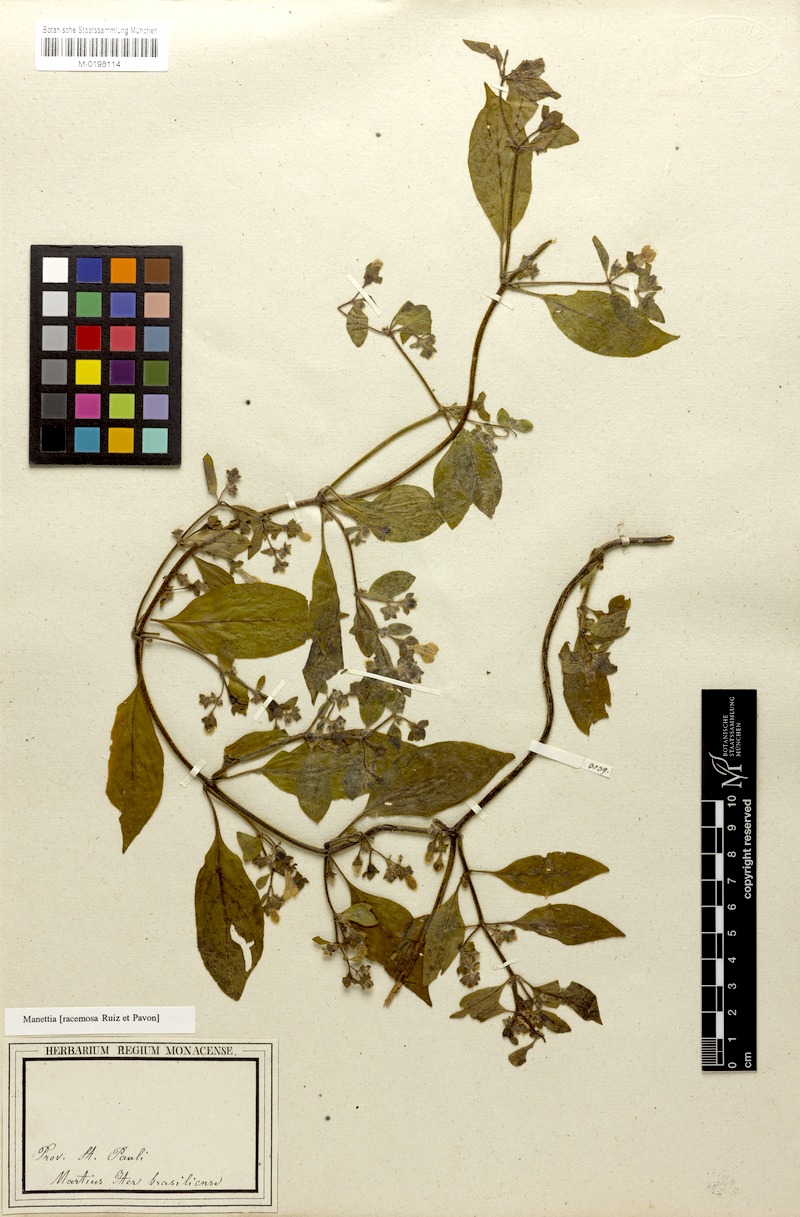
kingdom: Plantae
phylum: Tracheophyta
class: Magnoliopsida
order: Gentianales
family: Rubiaceae
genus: Manettia
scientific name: Manettia racemosa
